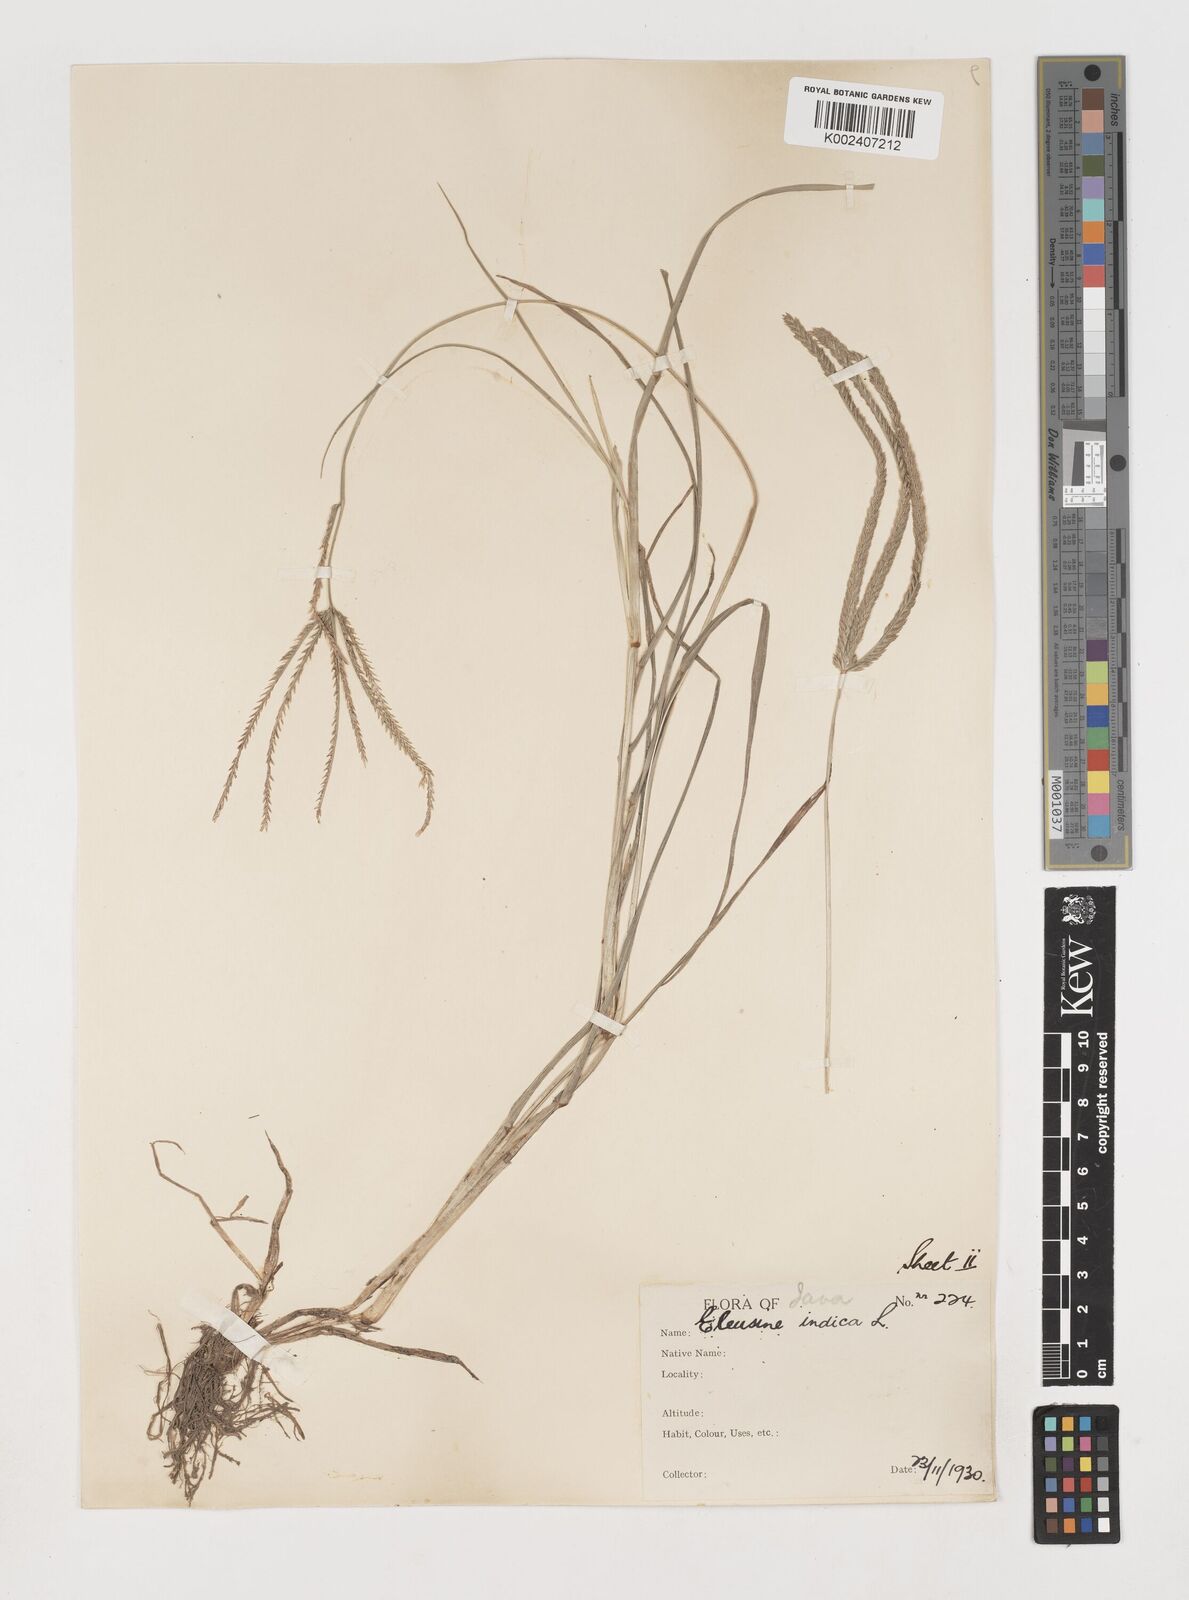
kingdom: Plantae
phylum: Tracheophyta
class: Liliopsida
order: Poales
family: Poaceae
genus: Eleusine
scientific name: Eleusine indica
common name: Yard-grass
